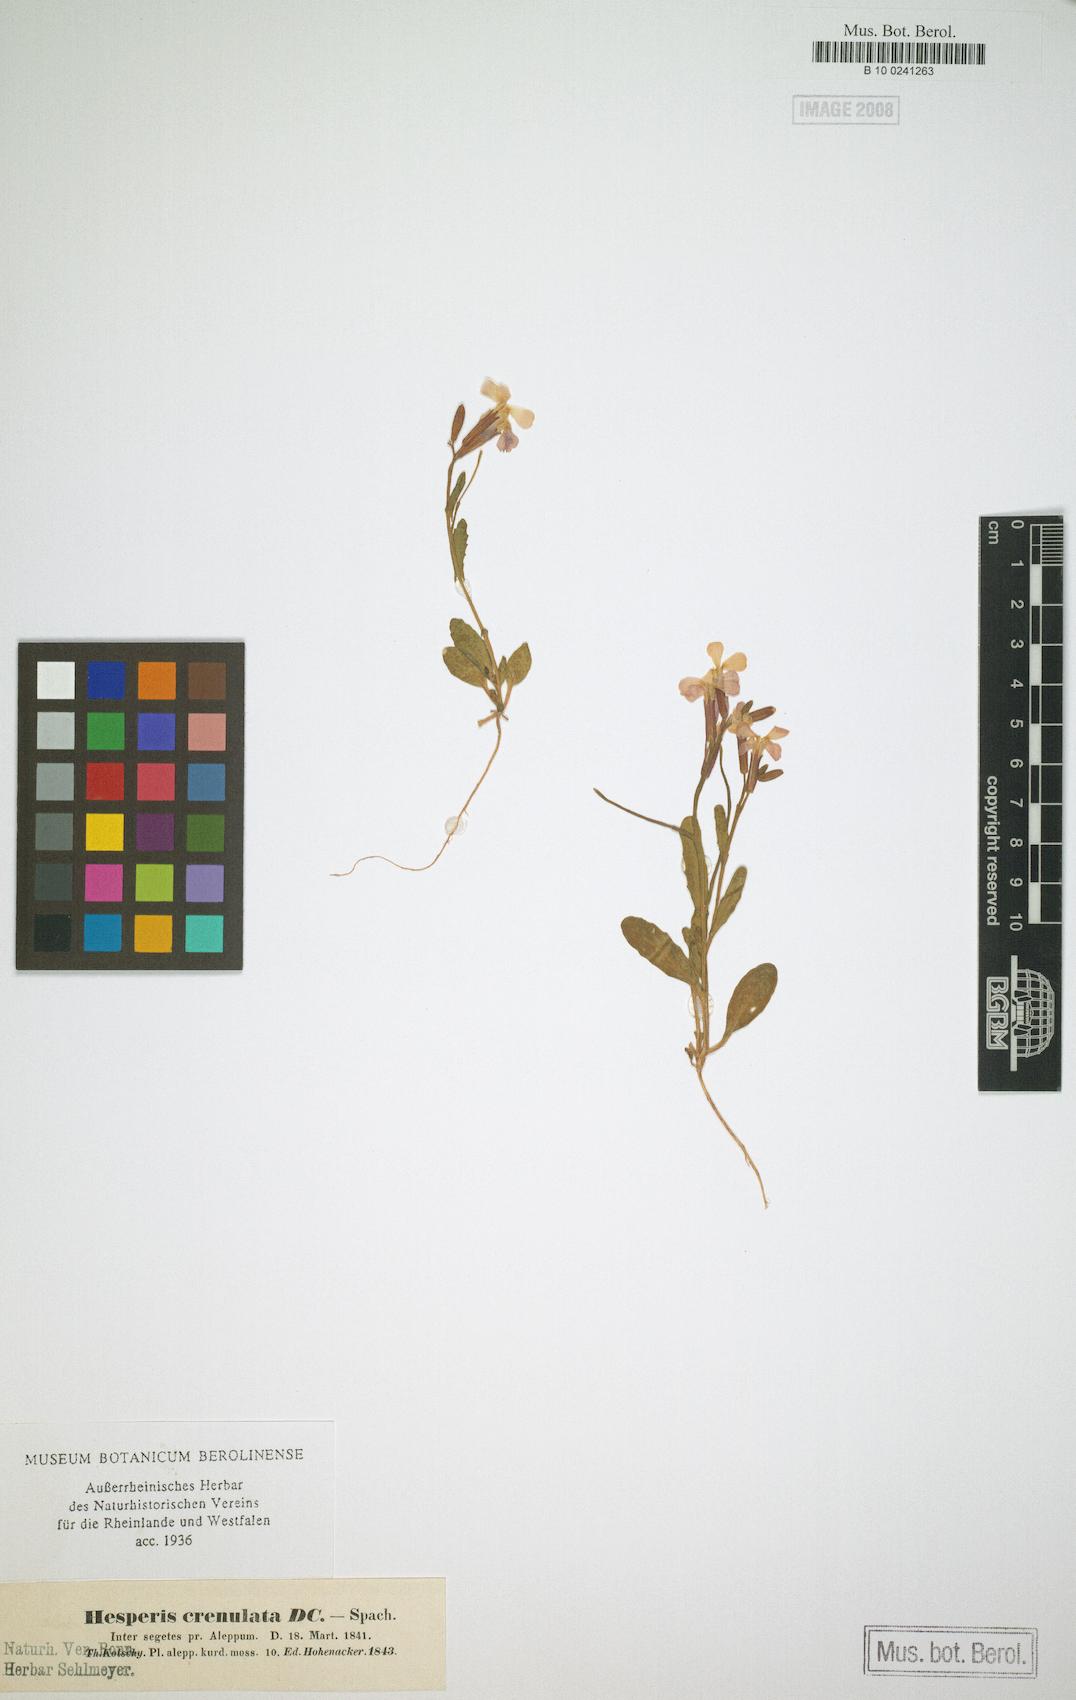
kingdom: Plantae
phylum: Tracheophyta
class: Magnoliopsida
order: Brassicales
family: Brassicaceae
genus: Zuvanda
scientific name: Zuvanda crenulata
